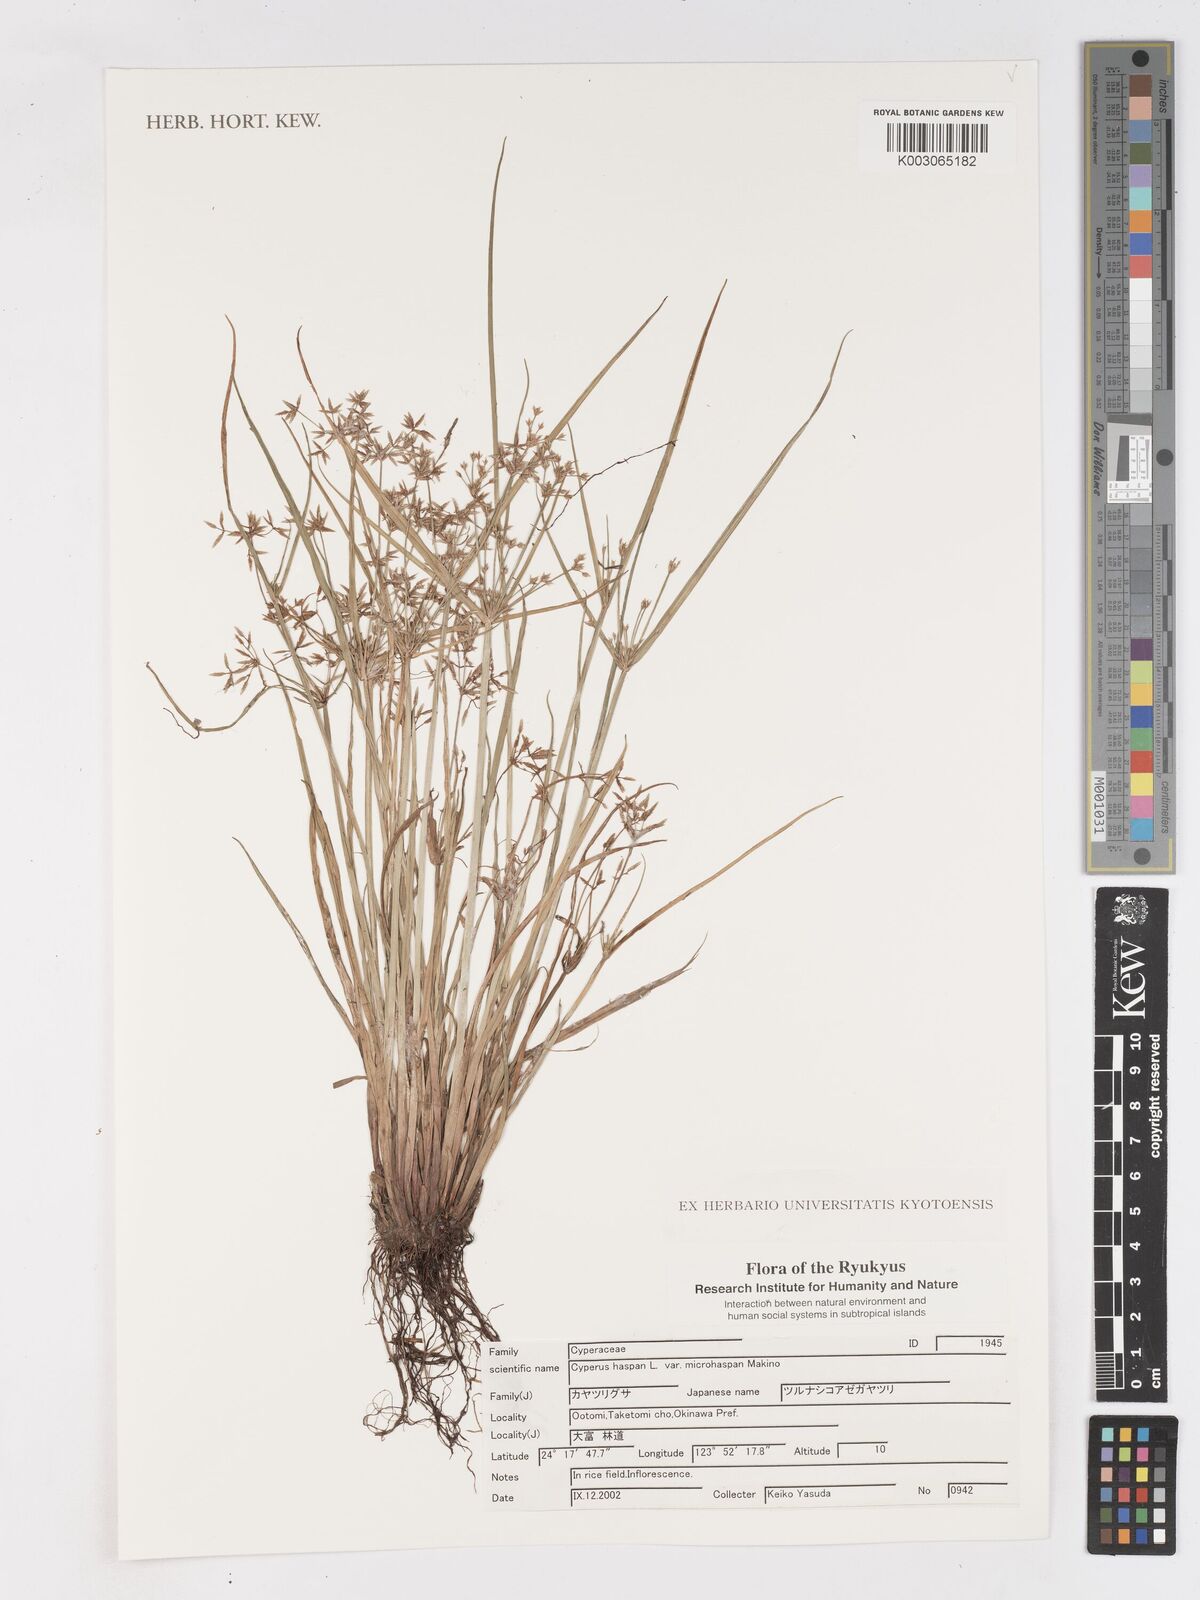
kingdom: Plantae
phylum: Tracheophyta
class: Liliopsida
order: Poales
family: Cyperaceae
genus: Cyperus
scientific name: Cyperus haspan
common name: Haspan flatsedge
